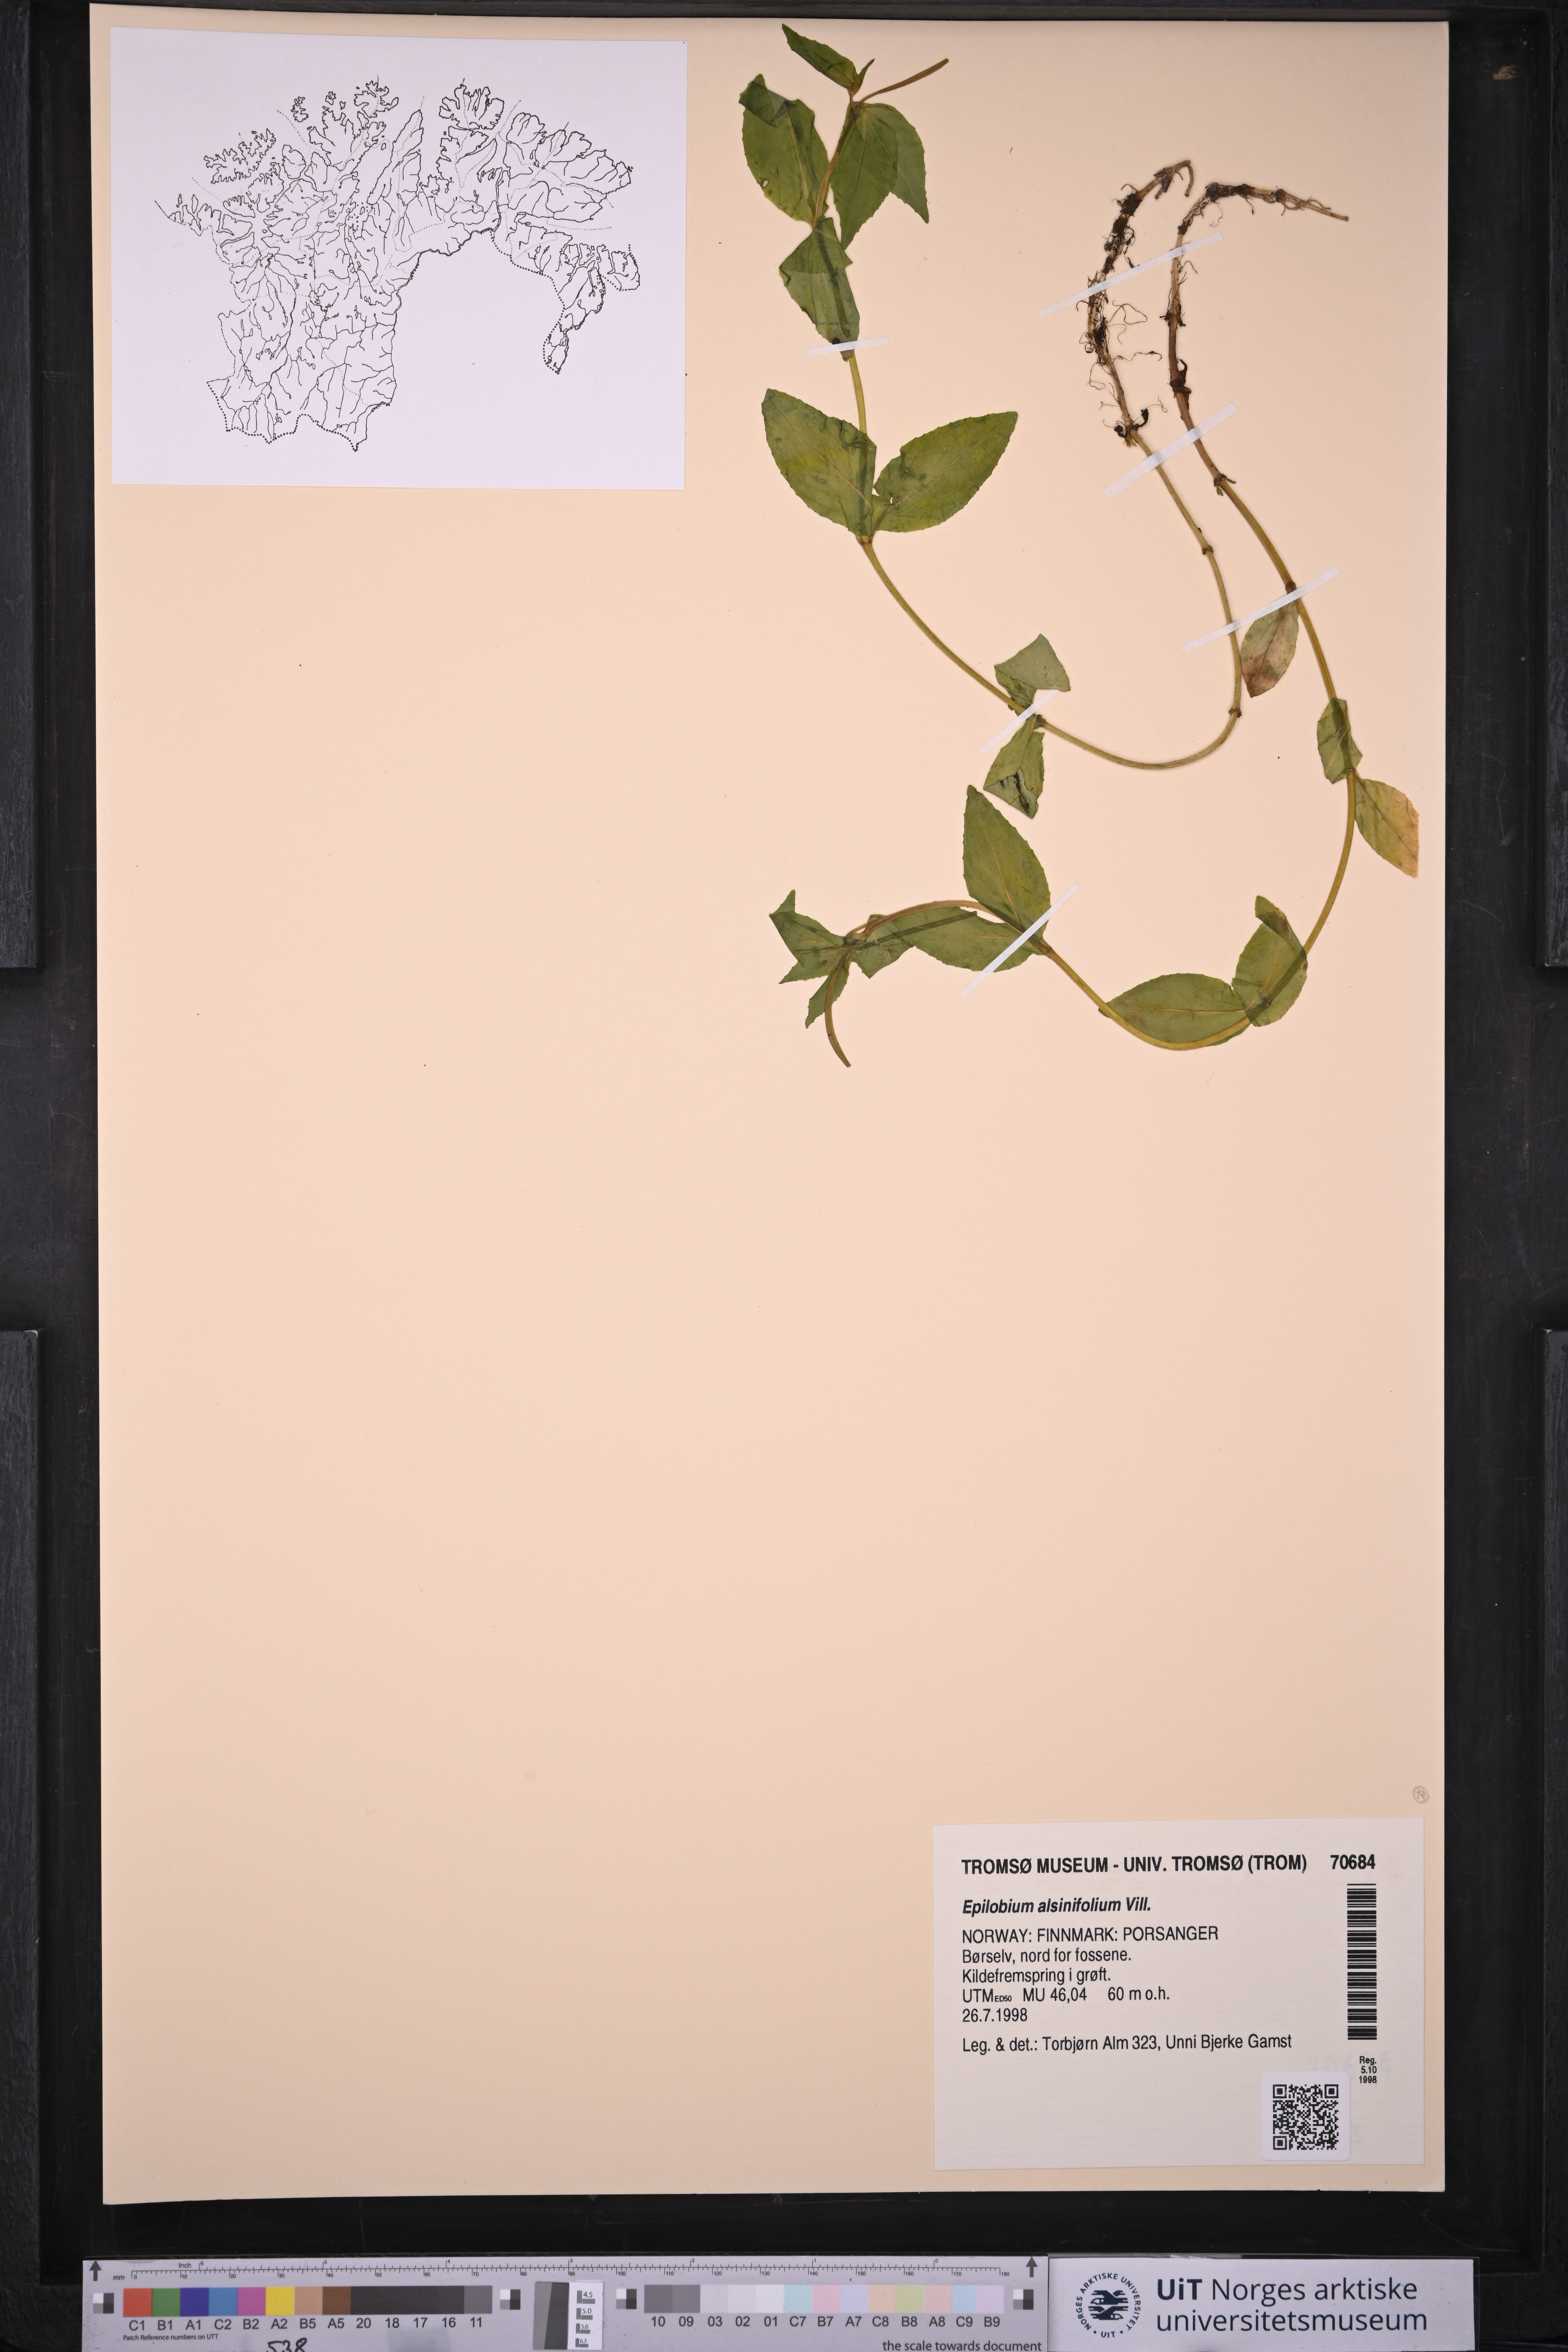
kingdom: Plantae
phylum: Tracheophyta
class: Magnoliopsida
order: Myrtales
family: Onagraceae
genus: Epilobium
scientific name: Epilobium alsinifolium
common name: Chickweed willowherb
